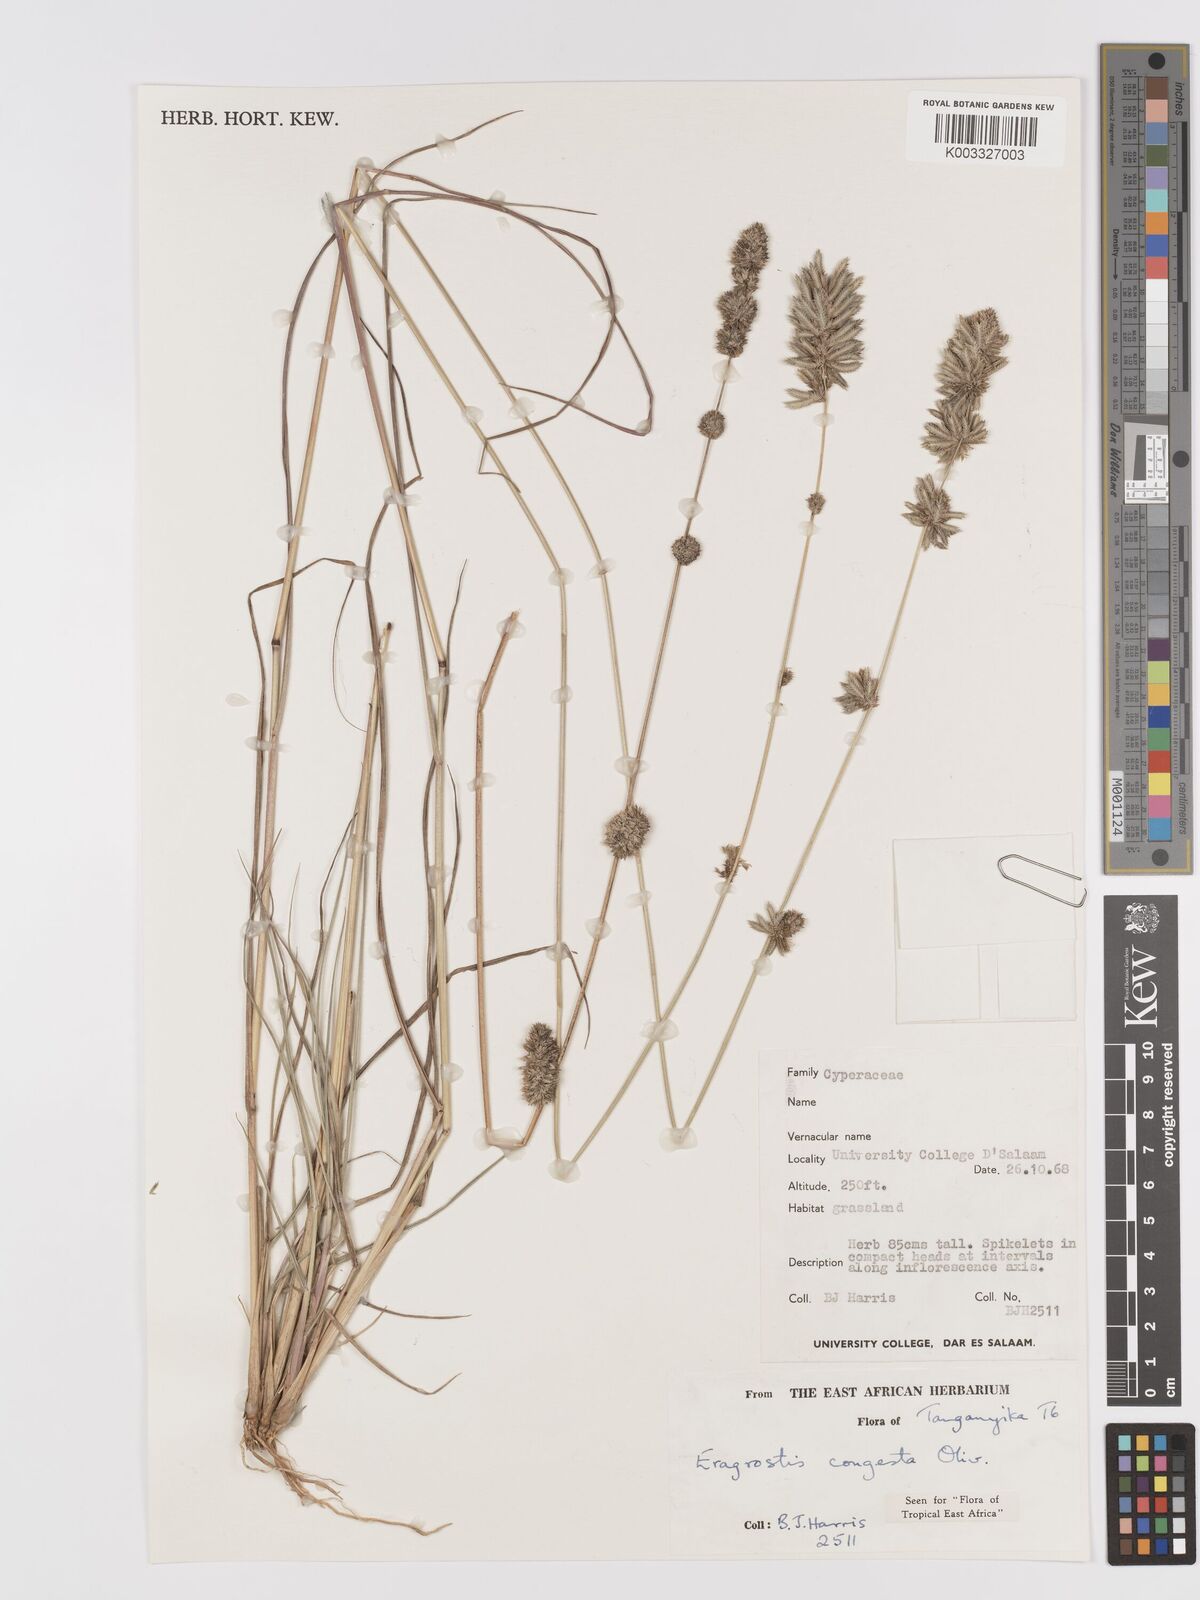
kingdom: Plantae
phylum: Tracheophyta
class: Liliopsida
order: Poales
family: Poaceae
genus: Eragrostis
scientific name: Eragrostis congesta
